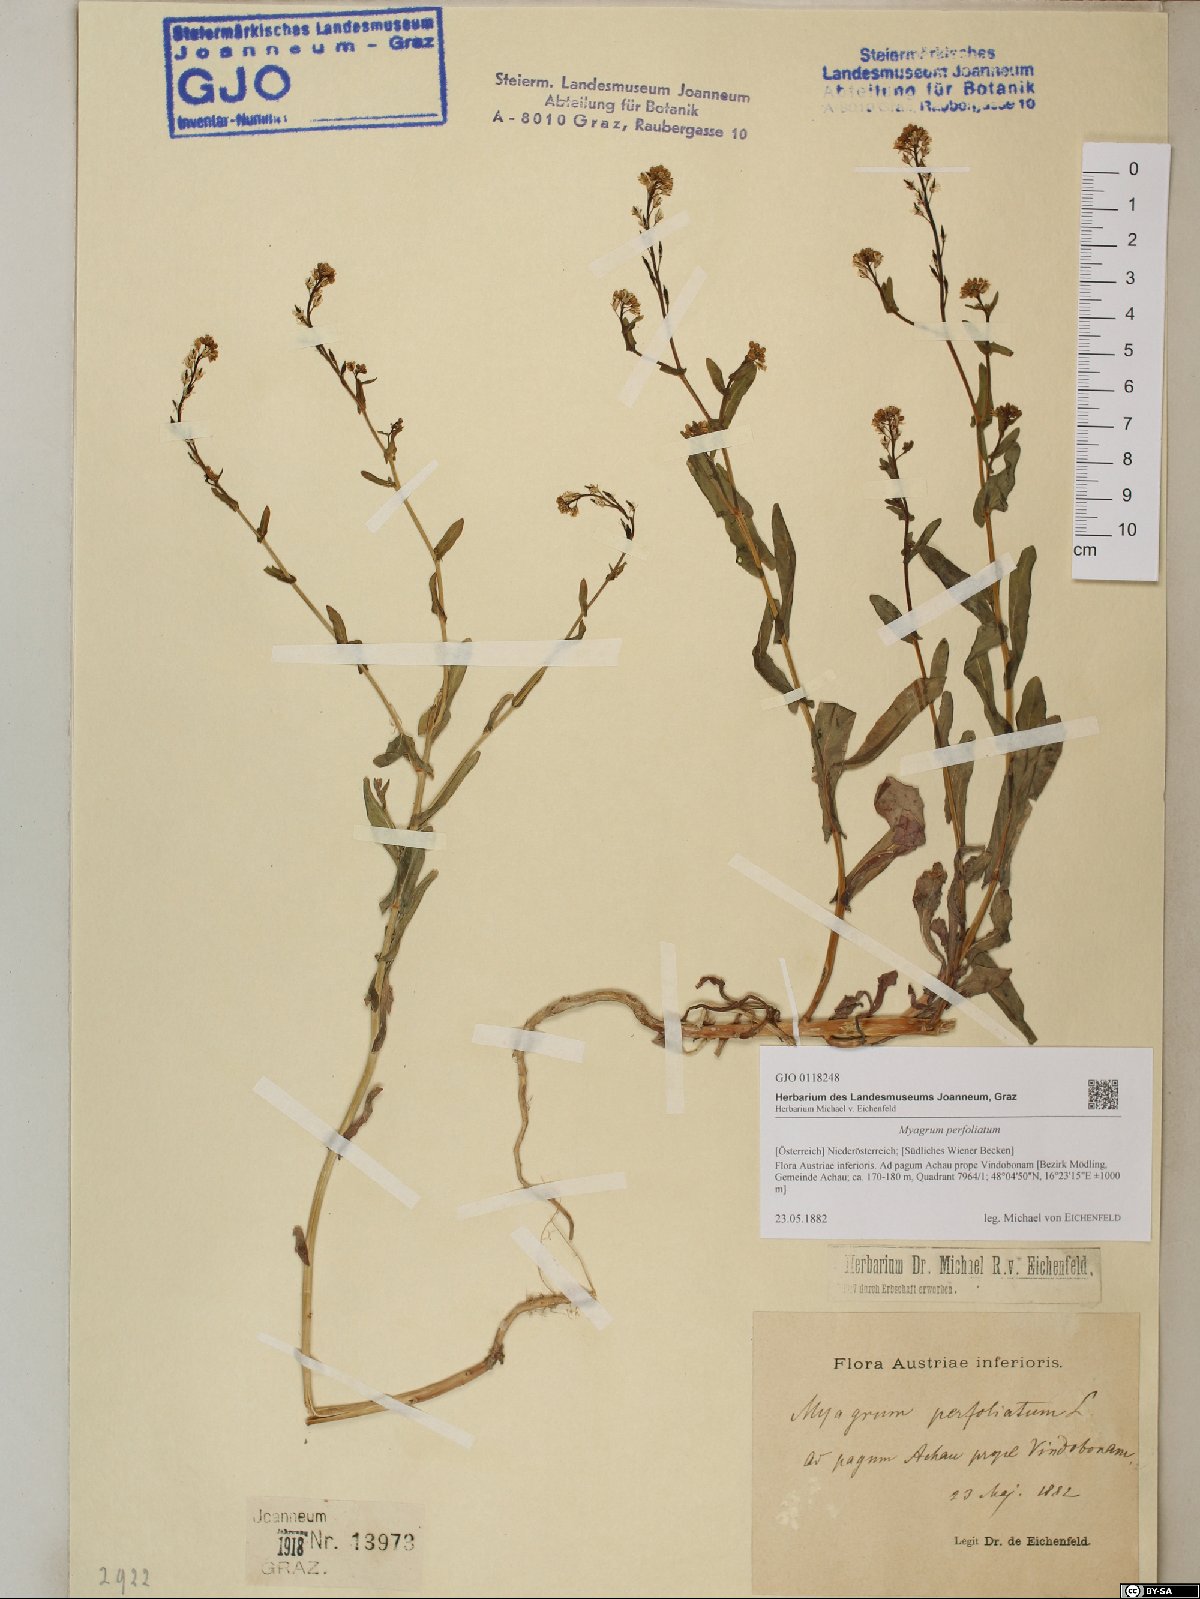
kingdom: Plantae
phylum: Tracheophyta
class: Magnoliopsida
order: Brassicales
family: Brassicaceae
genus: Myagrum
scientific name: Myagrum perfoliatum
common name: Mitre cress
